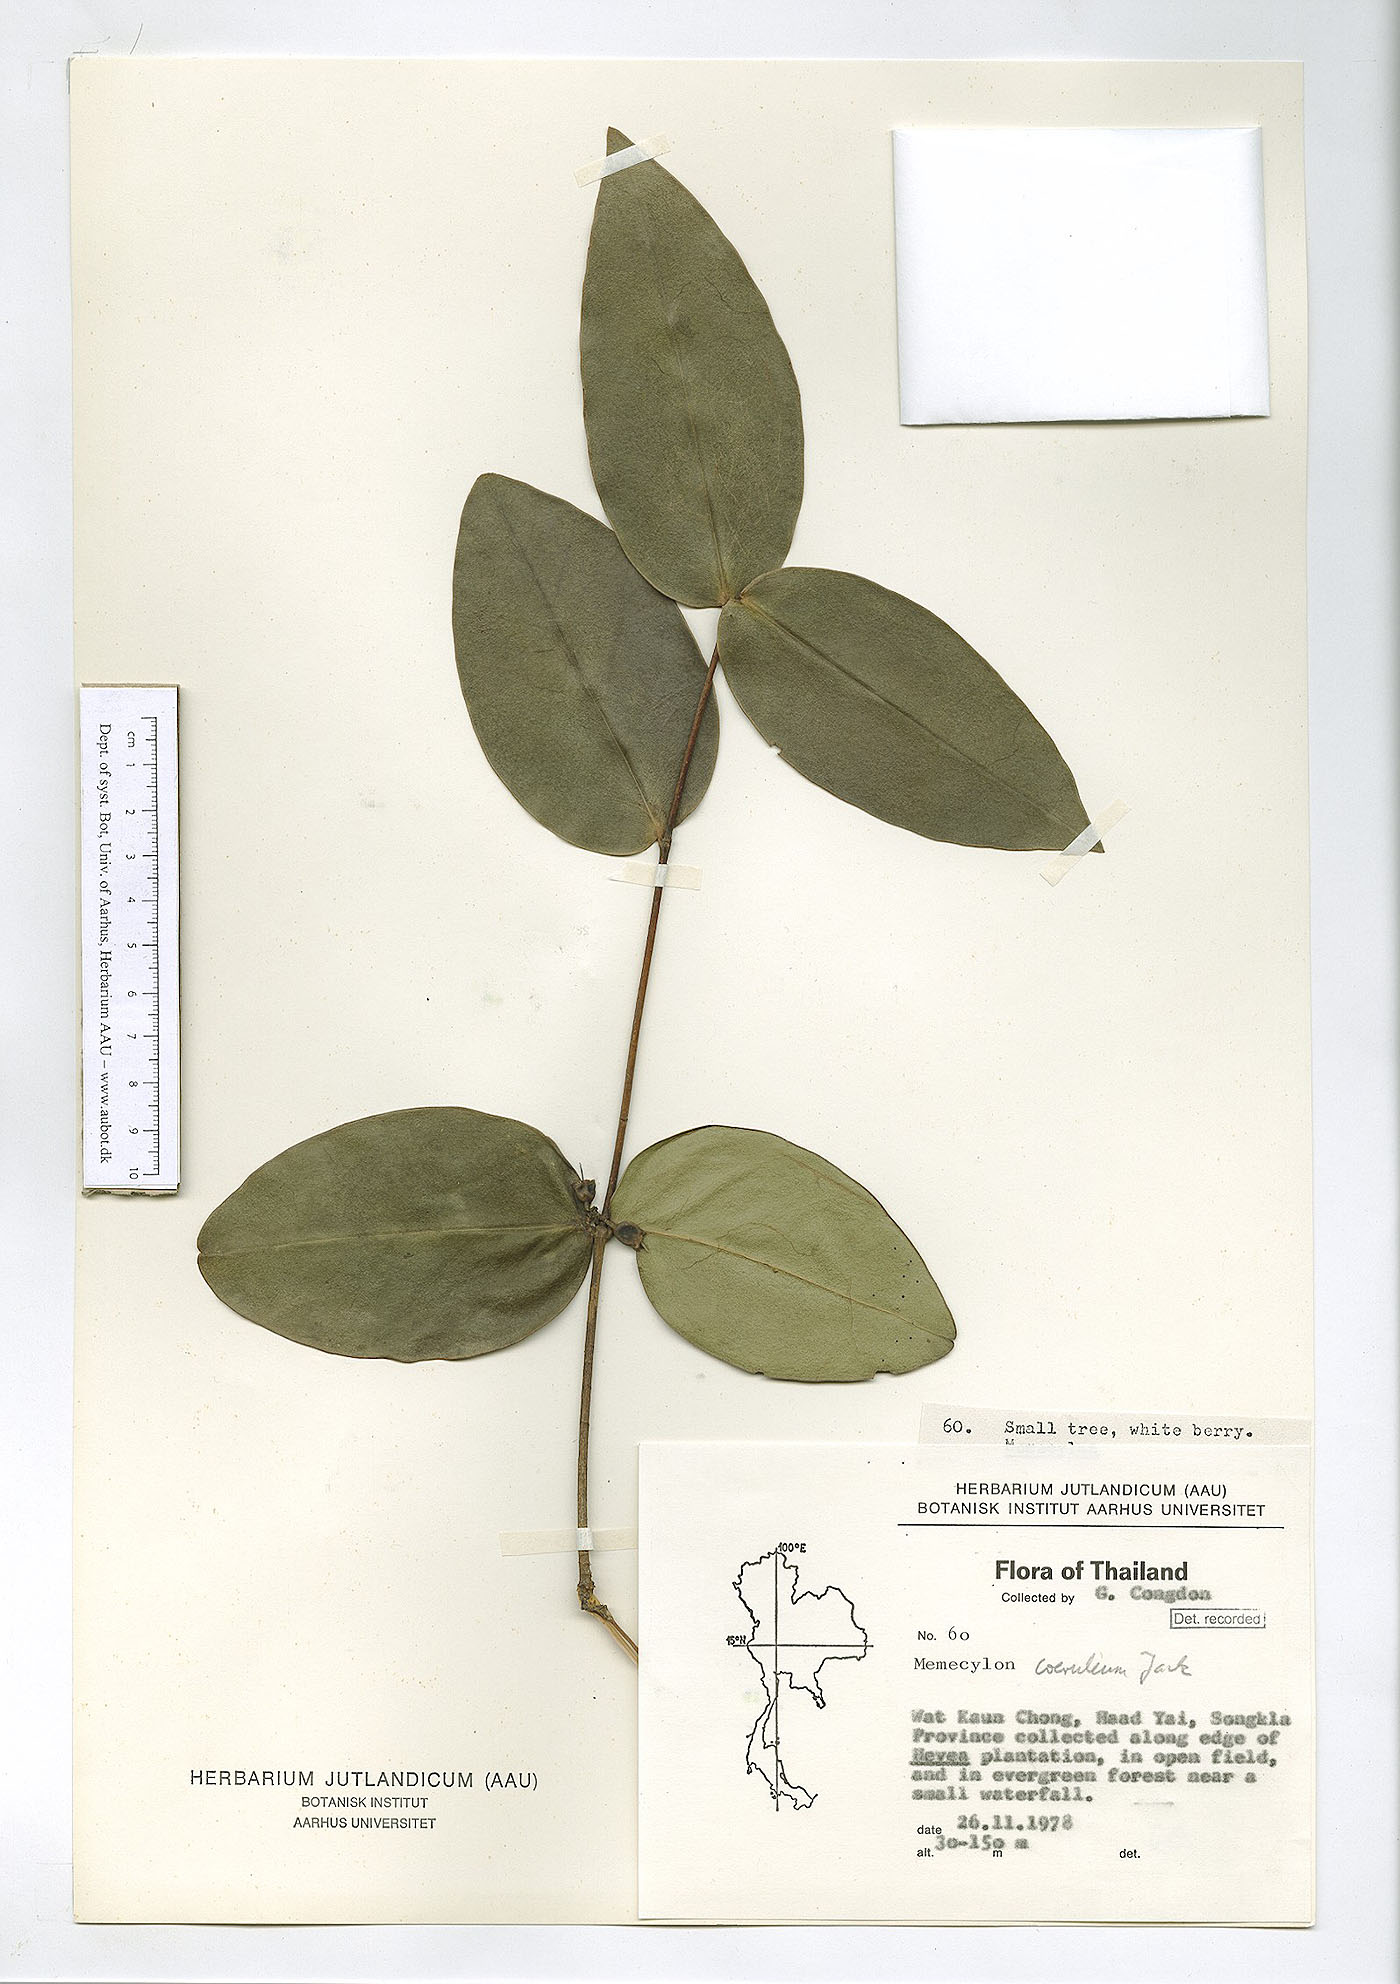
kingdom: Plantae
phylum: Tracheophyta
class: Magnoliopsida
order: Myrtales
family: Melastomataceae
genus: Memecylon
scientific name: Memecylon caeruleum
